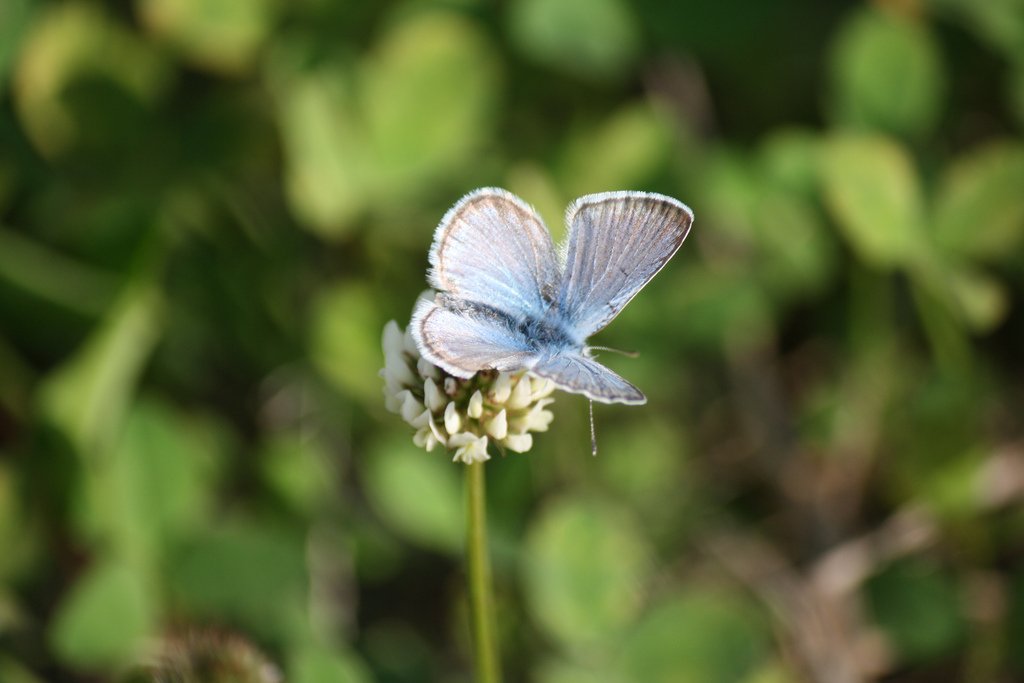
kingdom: Animalia
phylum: Arthropoda
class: Insecta
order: Lepidoptera
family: Lycaenidae
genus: Plebejus
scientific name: Plebejus saepiolus
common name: Greenish Blue
